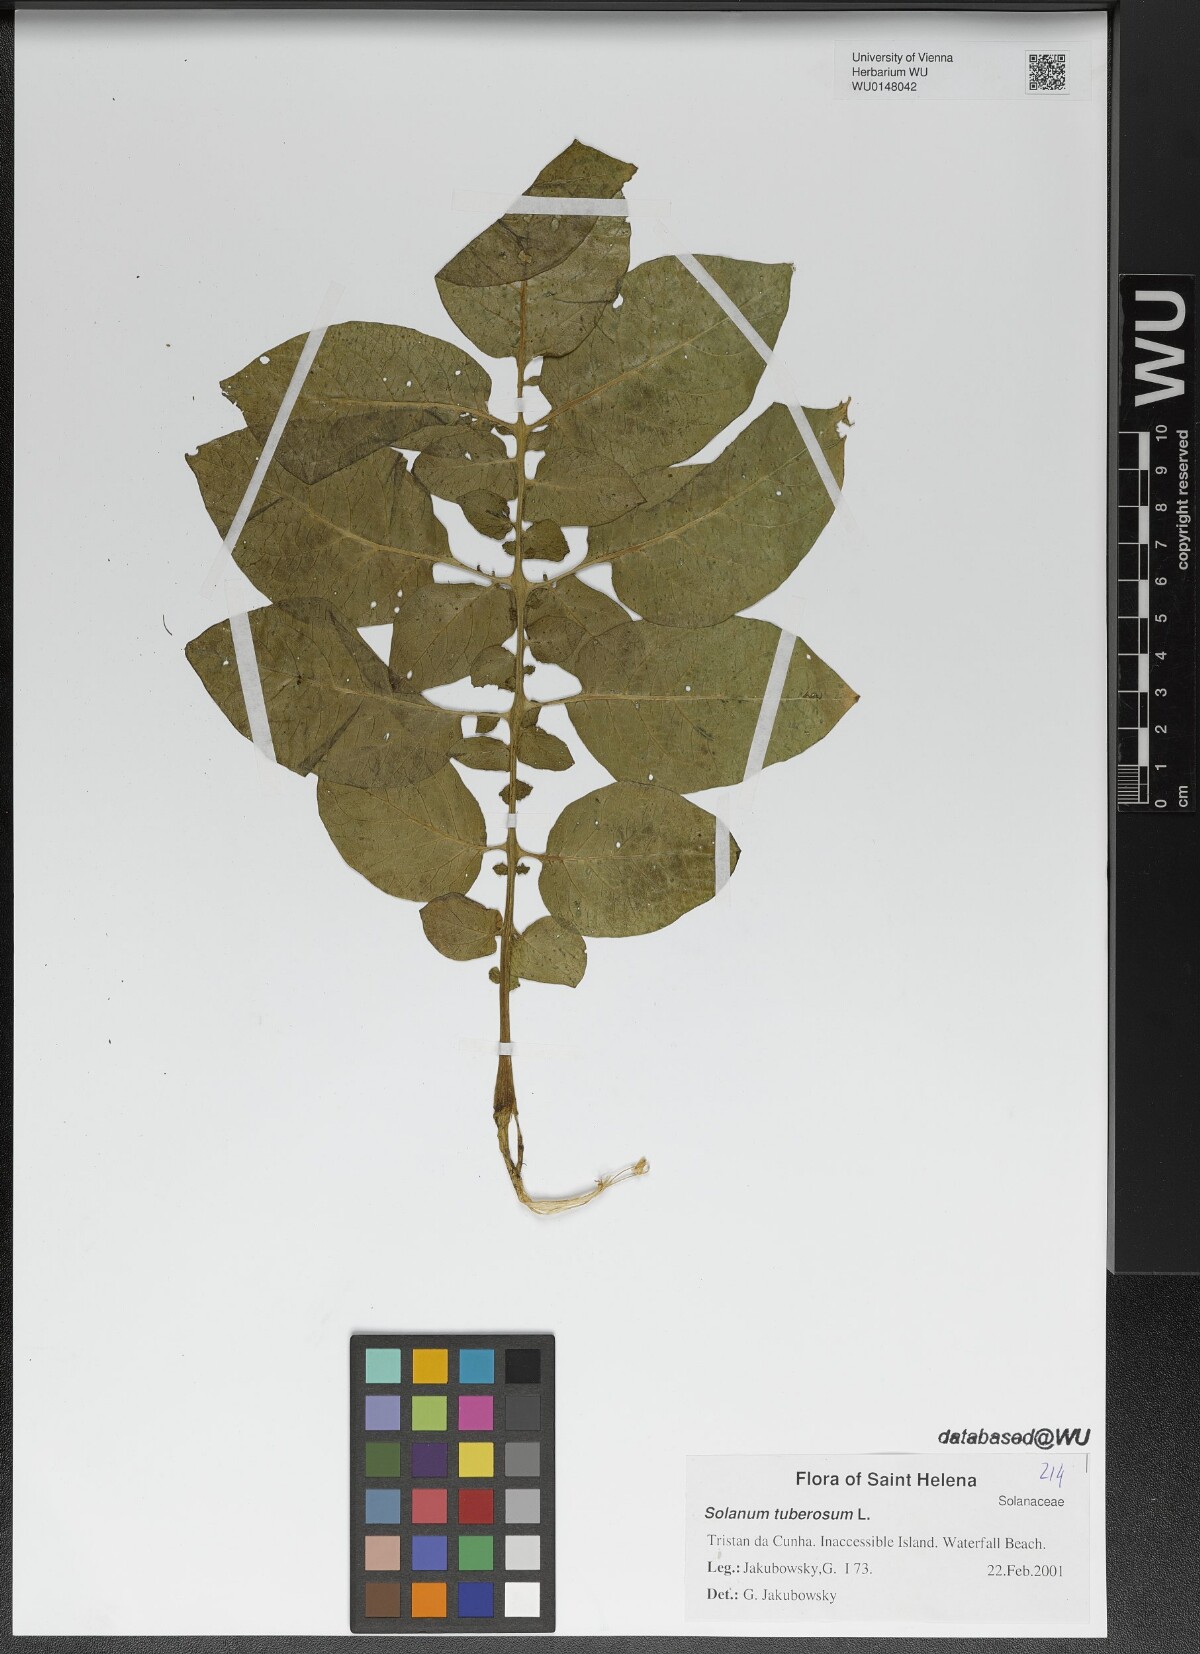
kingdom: Plantae
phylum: Tracheophyta
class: Magnoliopsida
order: Solanales
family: Solanaceae
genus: Solanum
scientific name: Solanum tuberosum
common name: Potato
